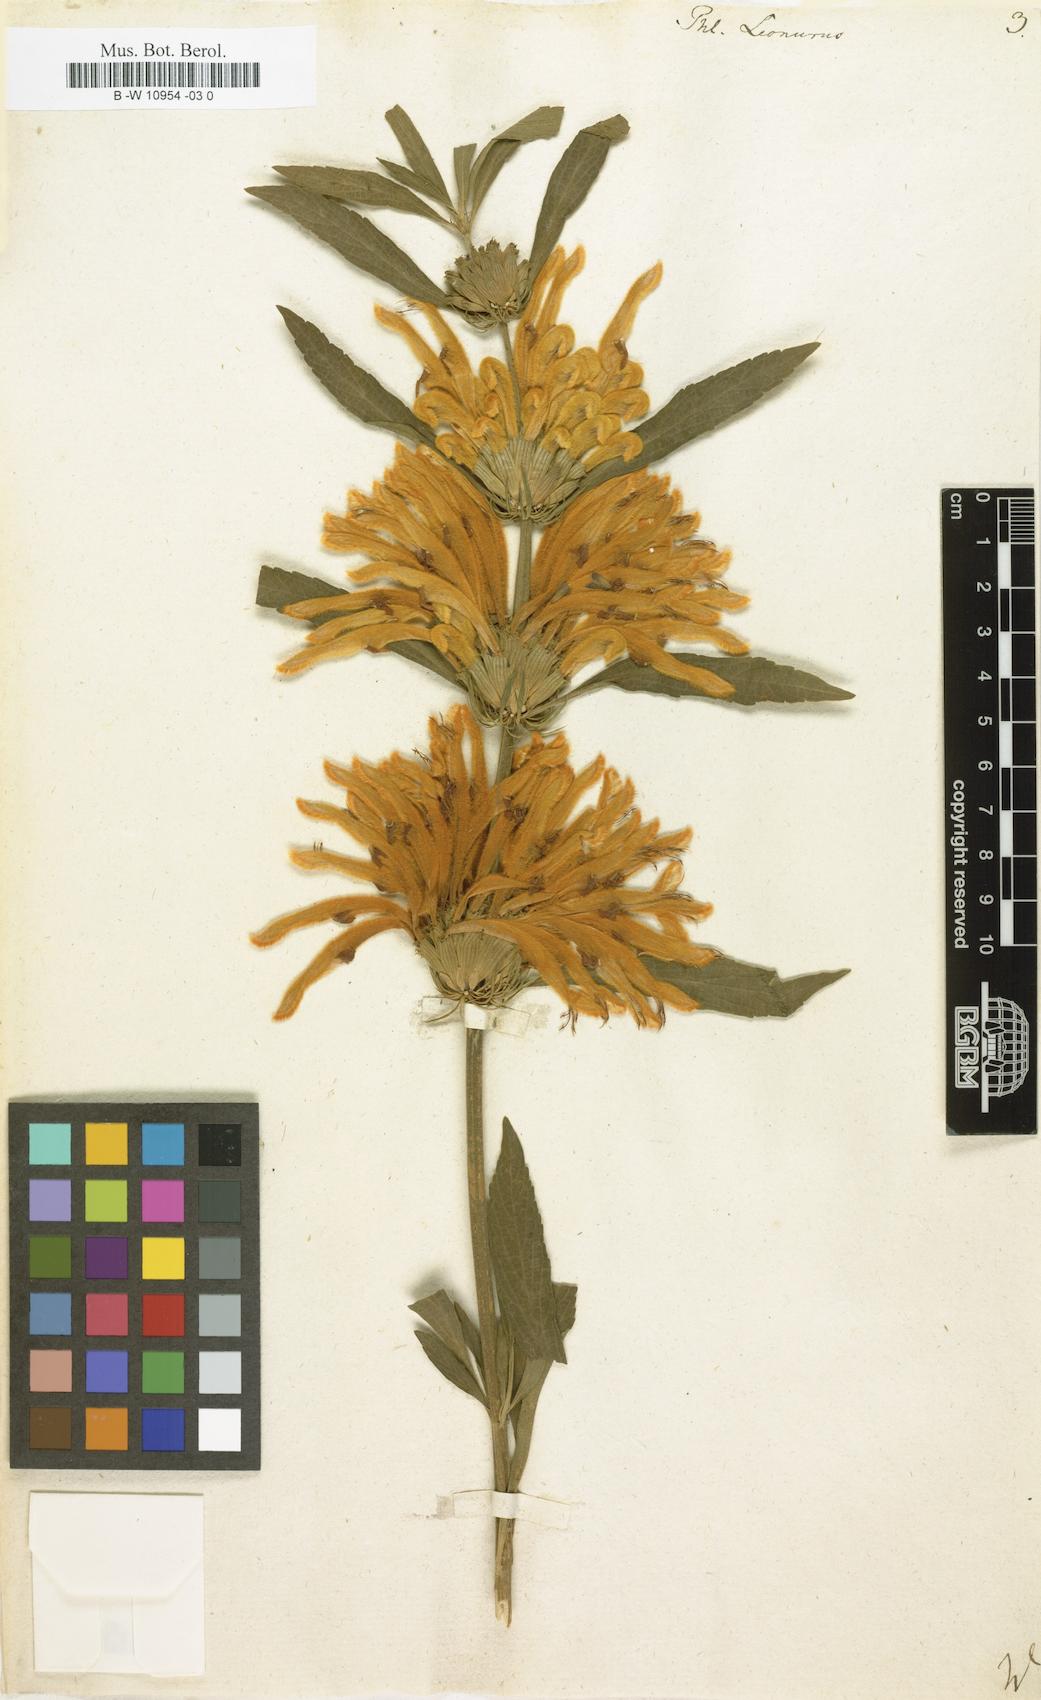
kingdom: Plantae
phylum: Tracheophyta
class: Magnoliopsida
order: Lamiales
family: Lamiaceae
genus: Leonotis
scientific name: Leonotis leonurus
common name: Lion's ear
